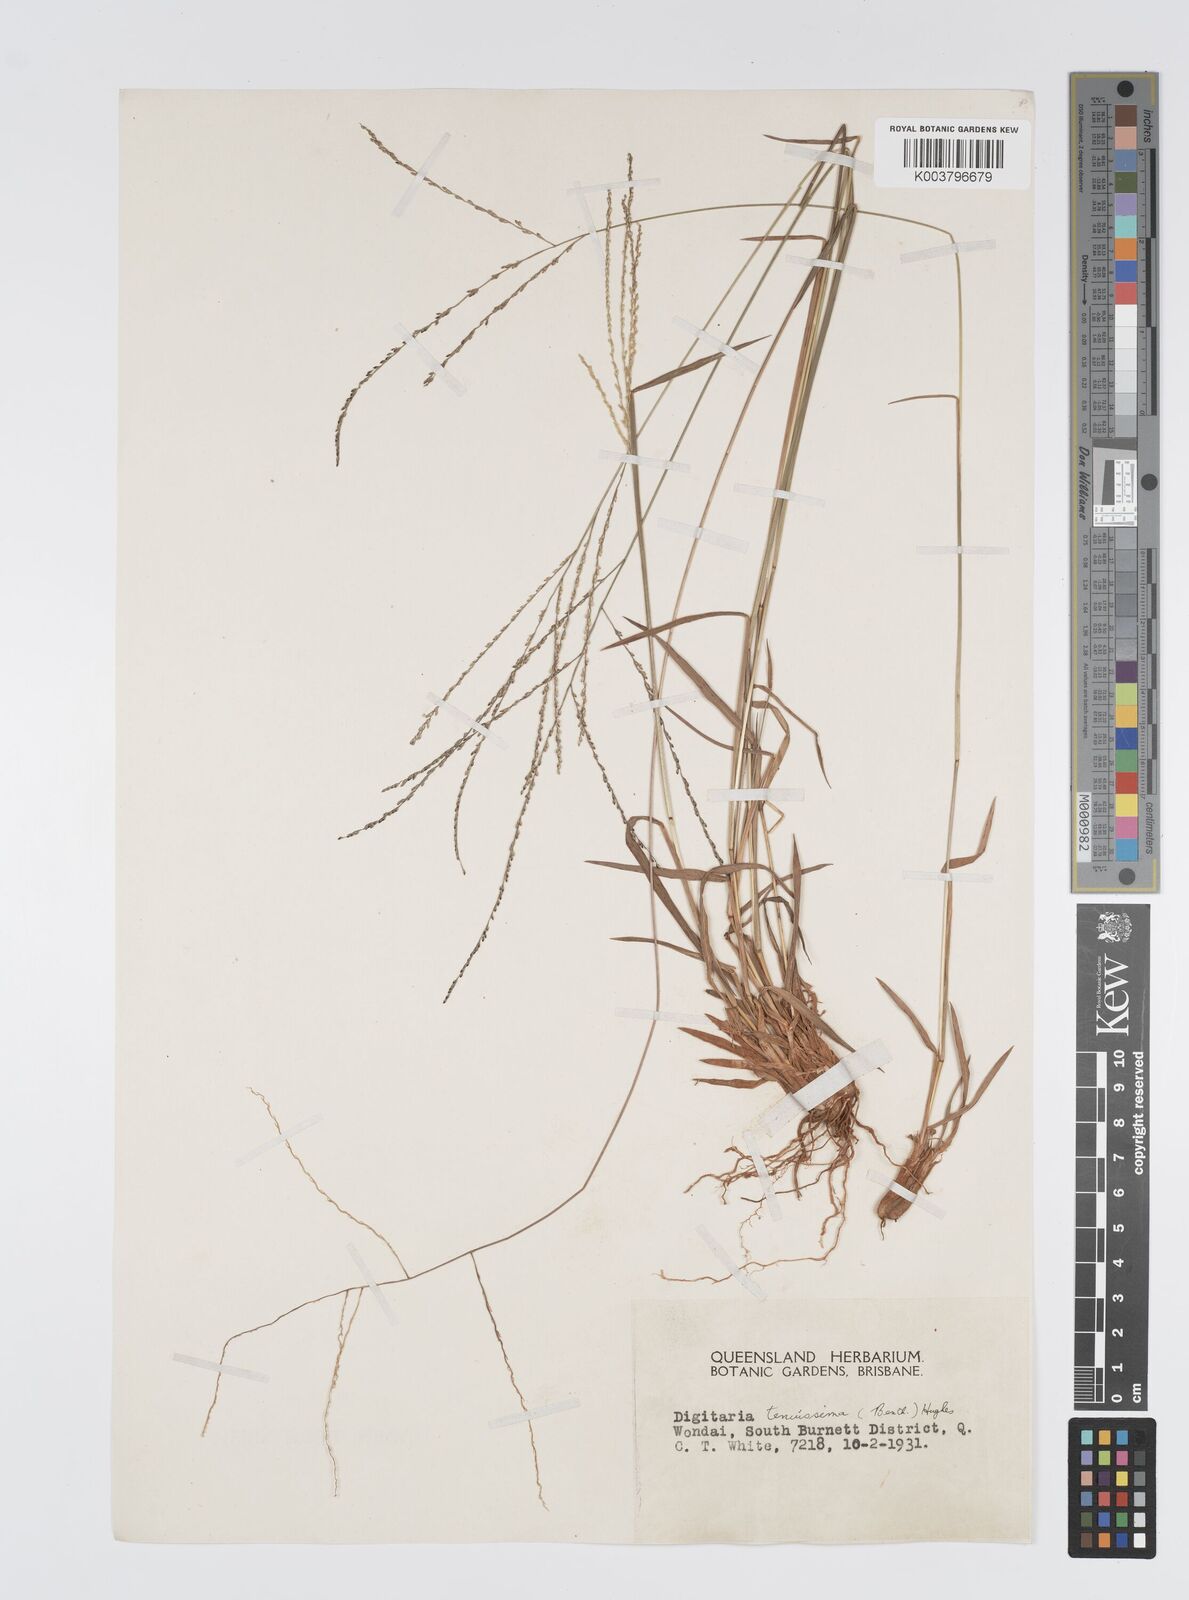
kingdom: Plantae
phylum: Tracheophyta
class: Liliopsida
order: Poales
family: Poaceae
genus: Digitaria
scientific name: Digitaria ramularis
